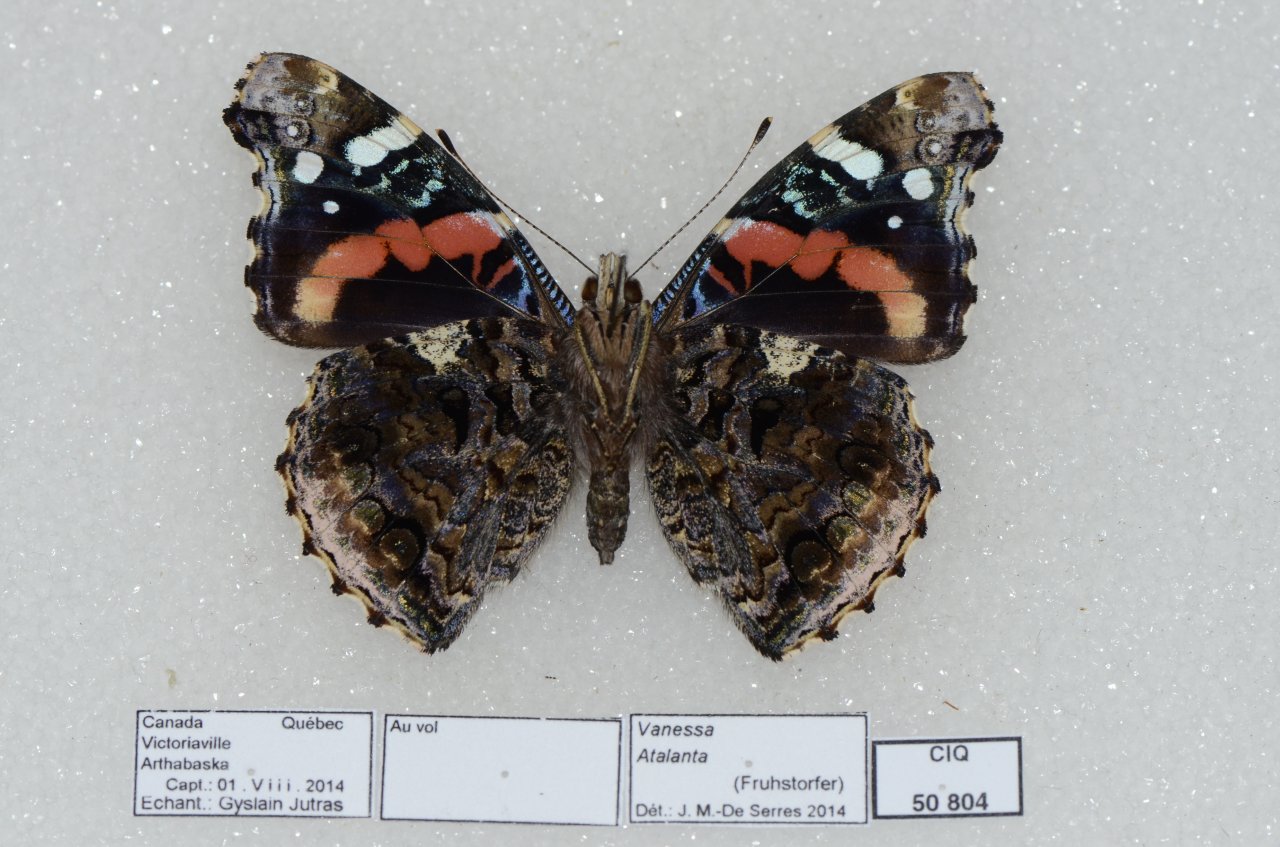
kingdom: Animalia
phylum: Arthropoda
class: Insecta
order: Lepidoptera
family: Nymphalidae
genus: Vanessa
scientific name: Vanessa atalanta
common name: Red Admiral
